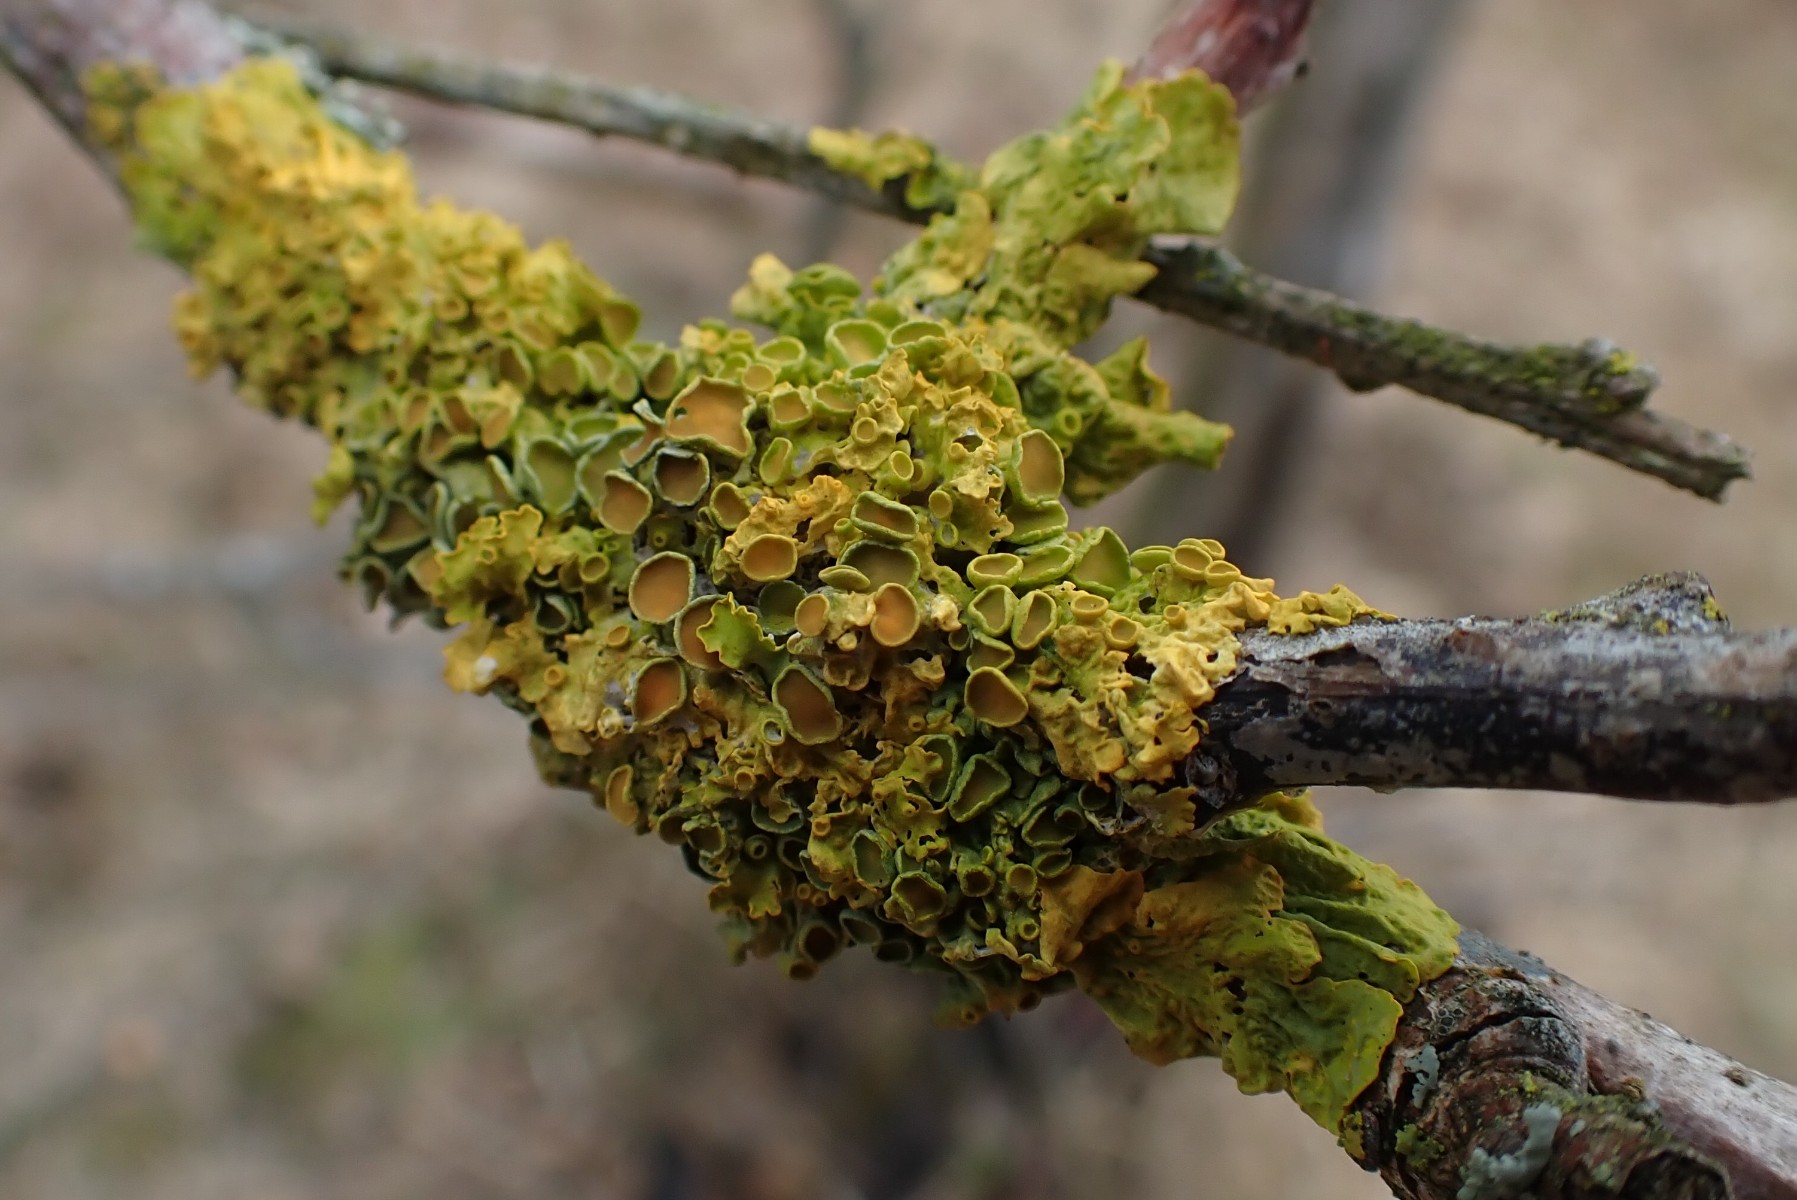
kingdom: Fungi
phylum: Ascomycota
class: Lecanoromycetes
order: Teloschistales
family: Teloschistaceae
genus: Xanthoria
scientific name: Xanthoria parietina
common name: almindelig væggelav
